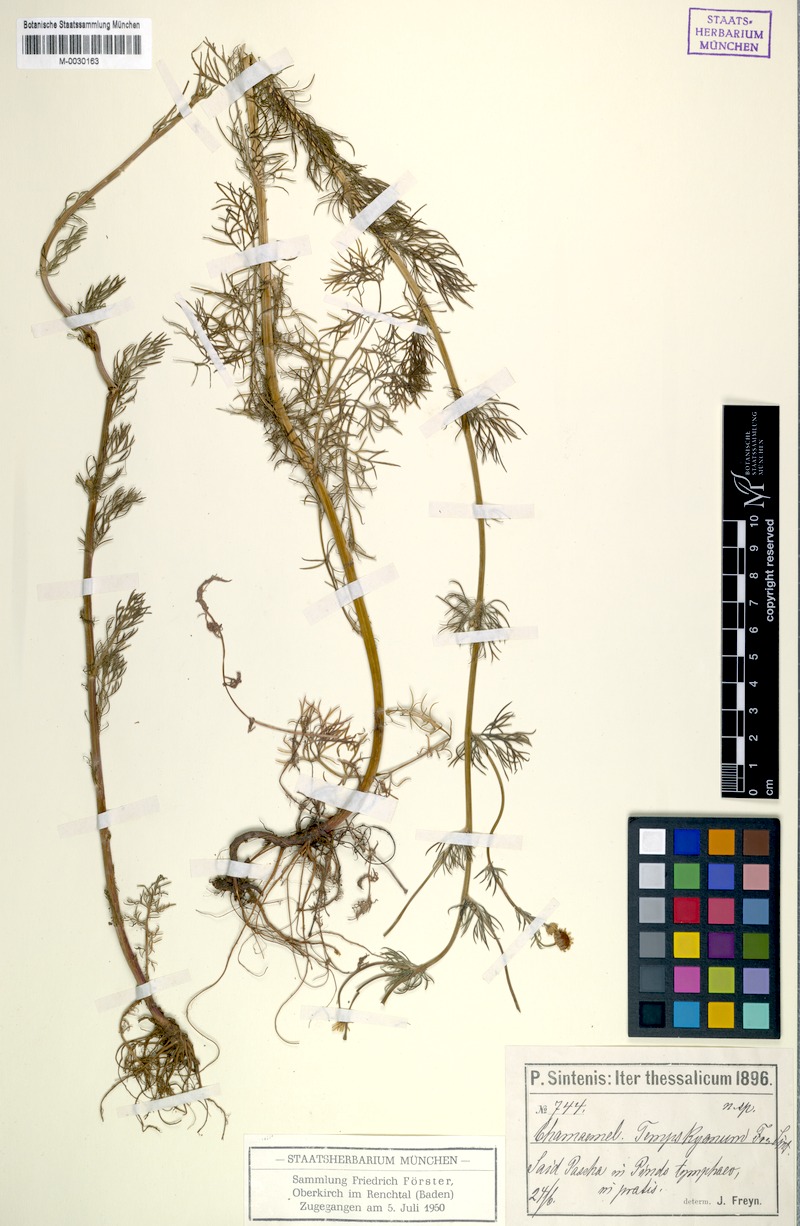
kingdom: Plantae
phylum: Tracheophyta
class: Magnoliopsida
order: Asterales
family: Asteraceae
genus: Tripleurospermum
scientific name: Tripleurospermum tempskyanum
